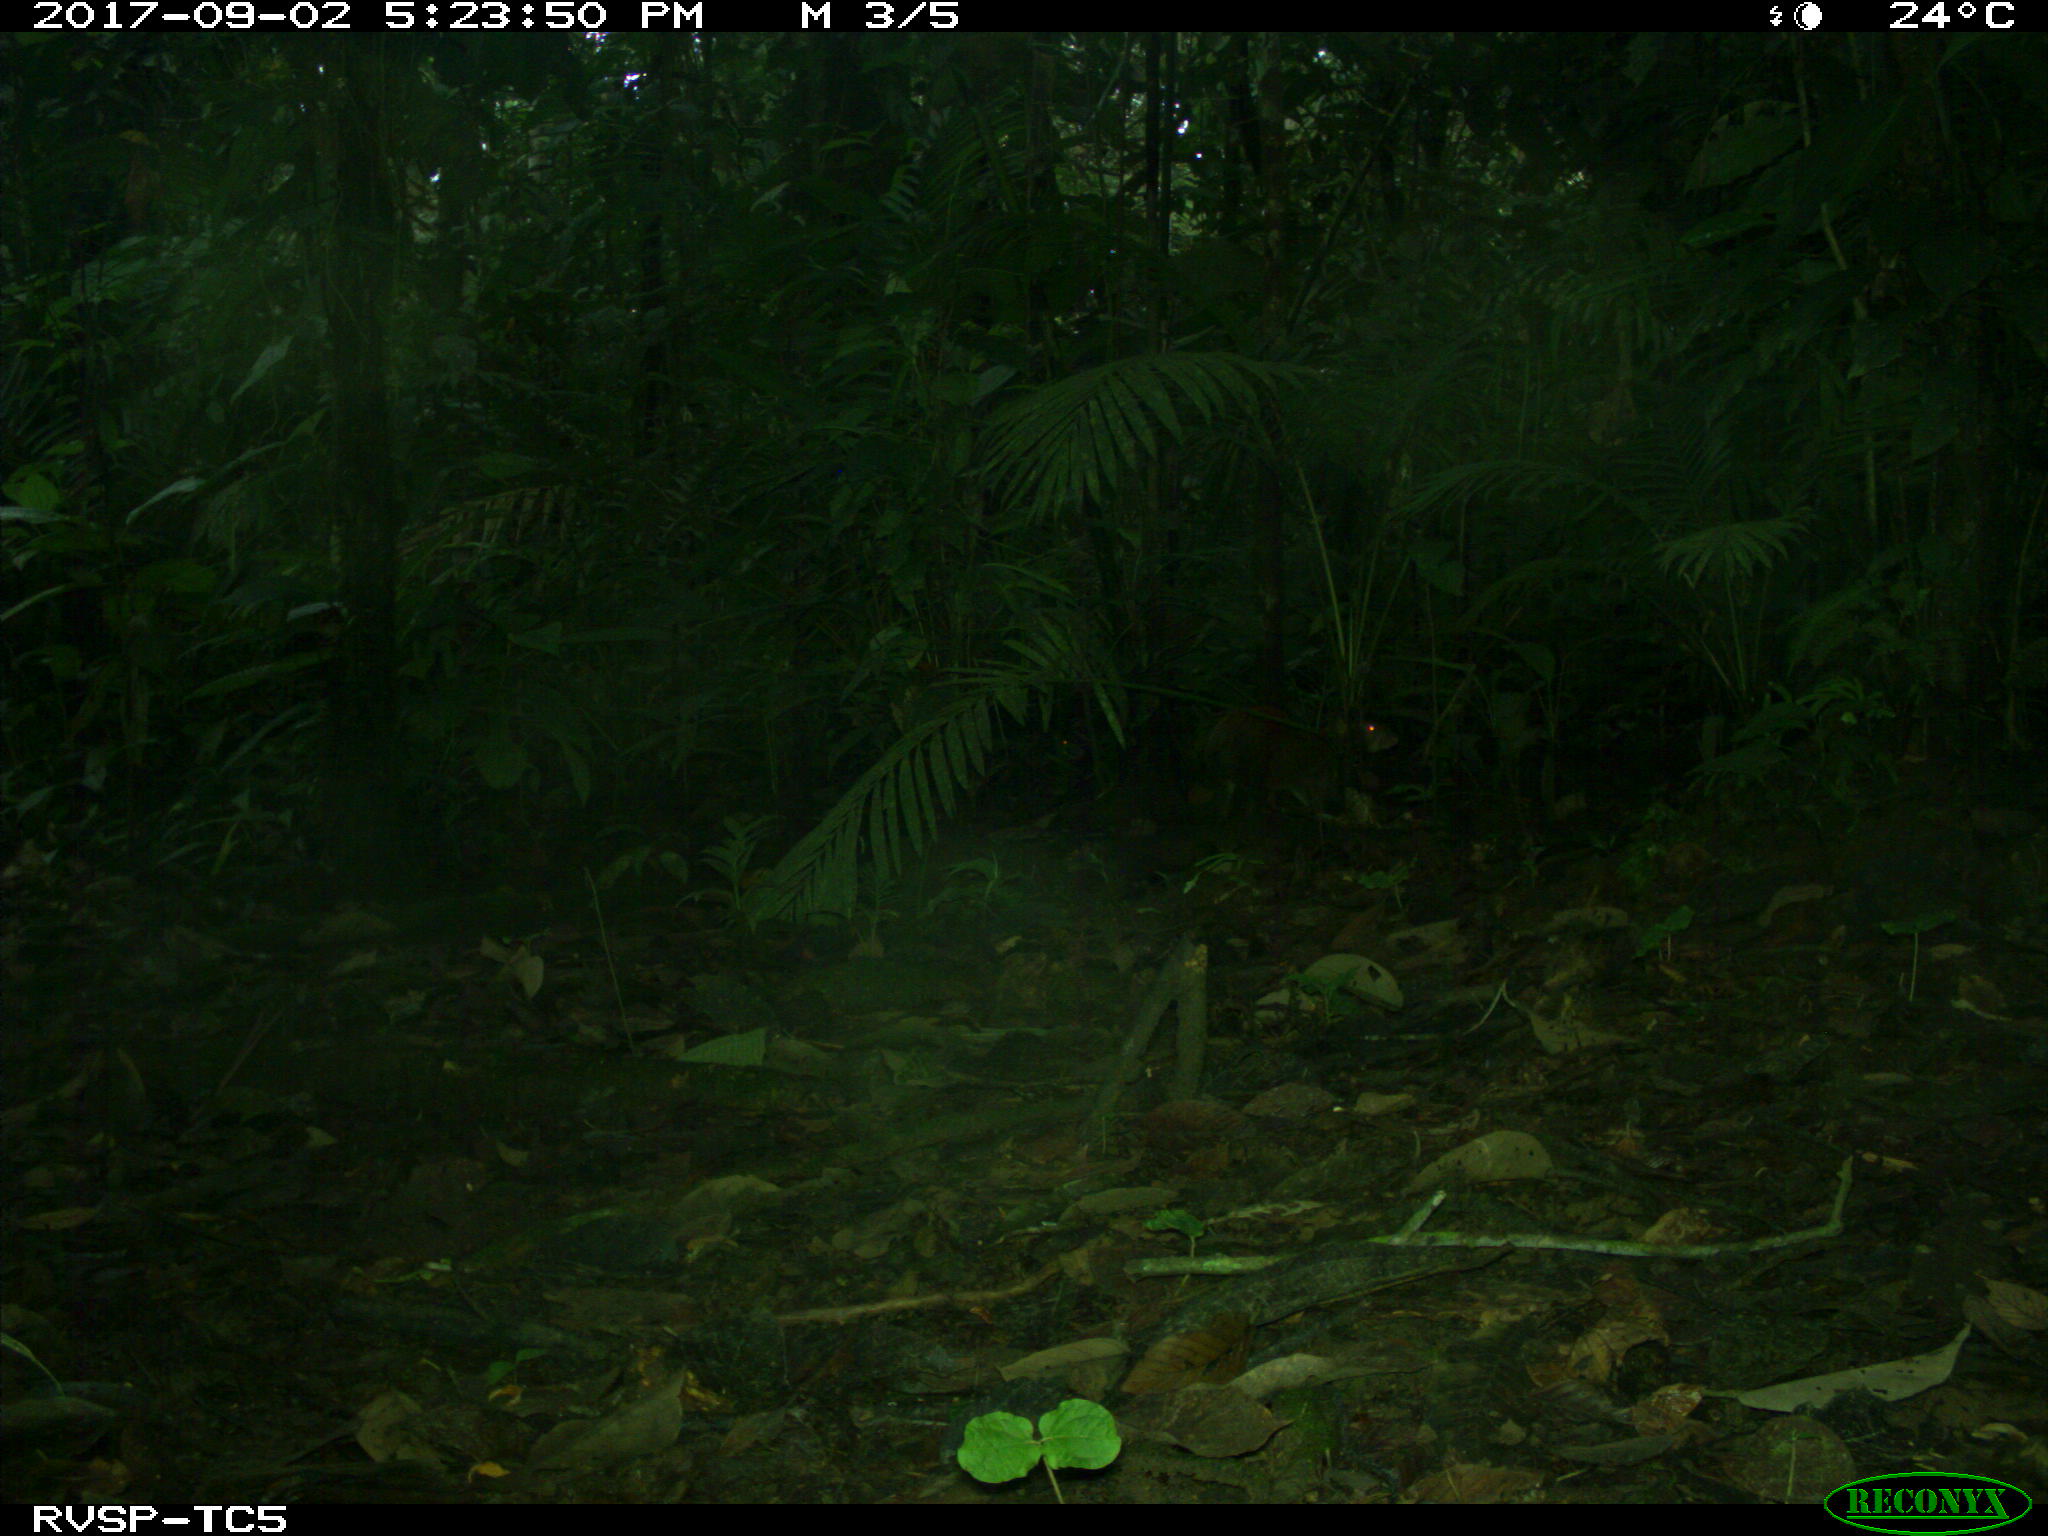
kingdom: Animalia
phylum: Chordata
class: Mammalia
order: Rodentia
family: Dasyproctidae
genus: Dasyprocta
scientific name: Dasyprocta punctata
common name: Central american agouti
